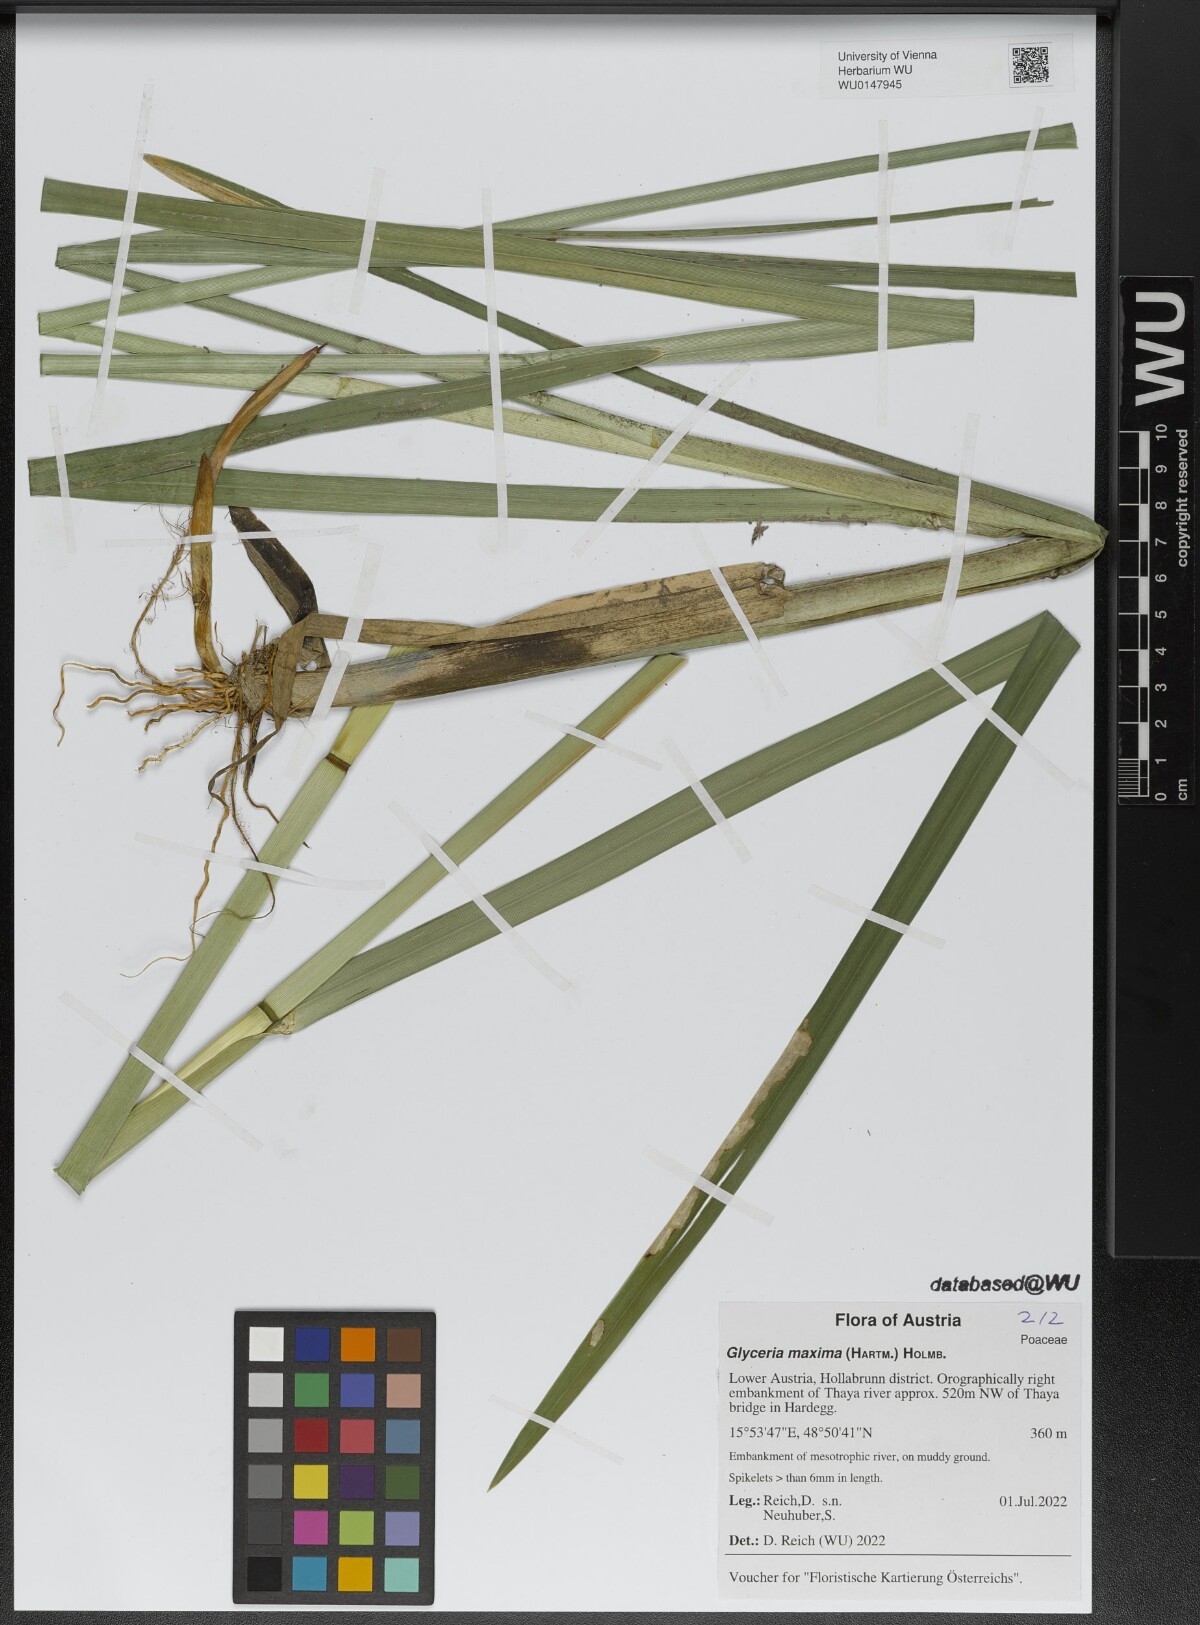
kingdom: Plantae
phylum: Tracheophyta
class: Liliopsida
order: Poales
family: Poaceae
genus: Glyceria
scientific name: Glyceria maxima
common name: Reed mannagrass
